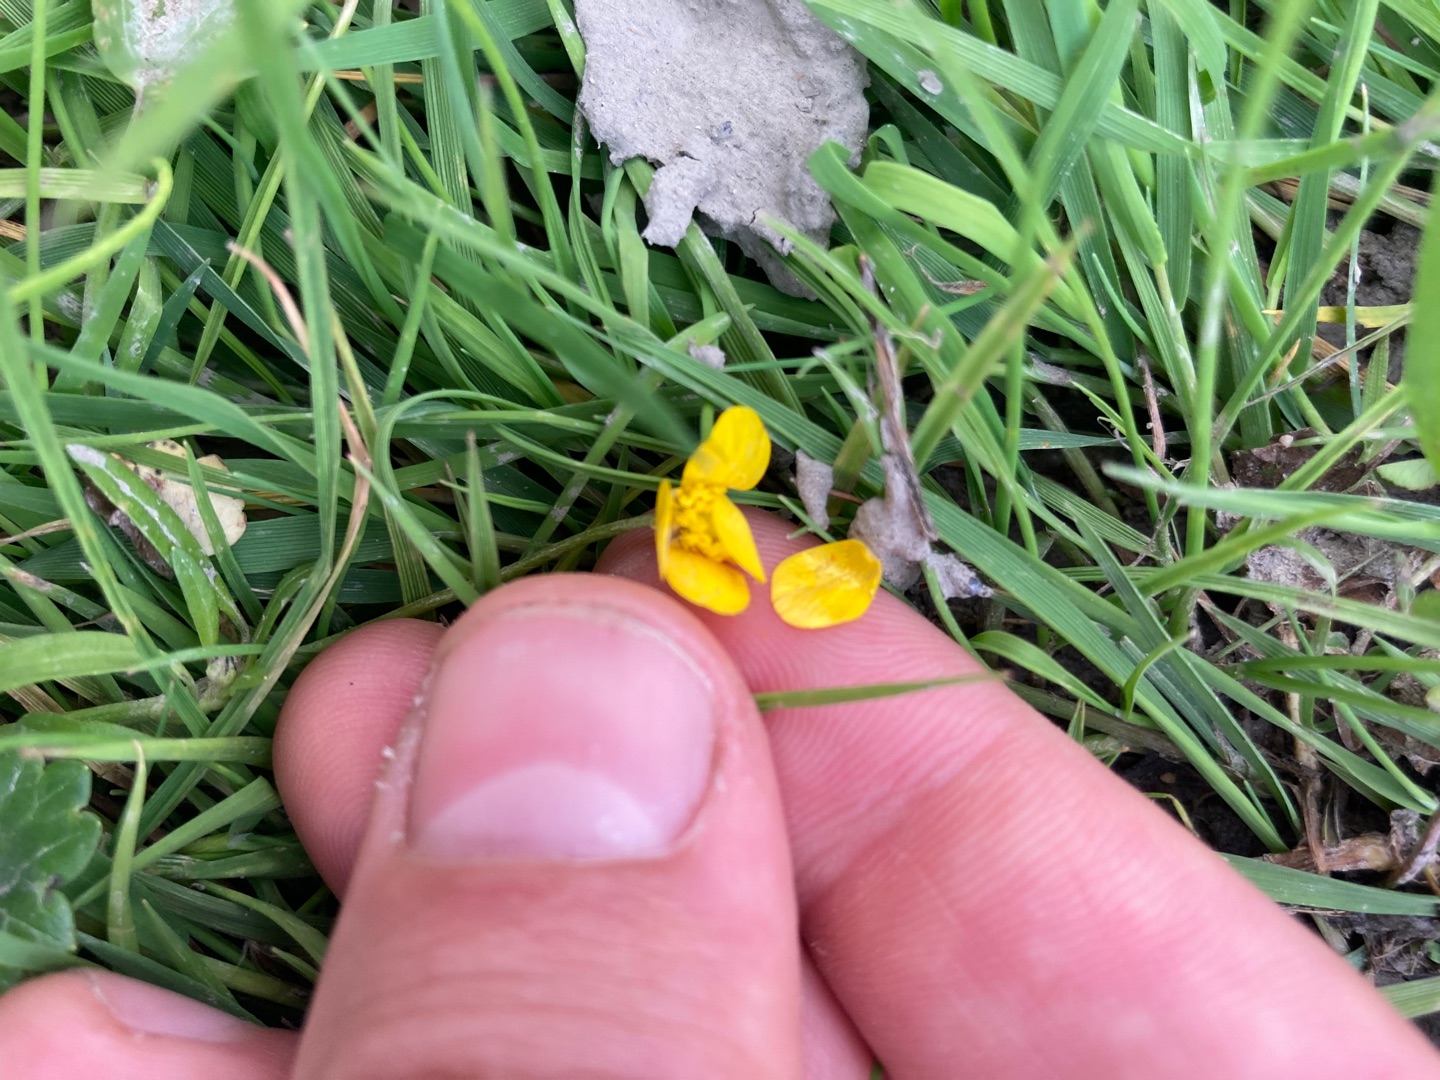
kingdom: Plantae
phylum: Tracheophyta
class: Magnoliopsida
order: Ranunculales
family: Ranunculaceae
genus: Ranunculus
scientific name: Ranunculus
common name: Ranunkelslægten
